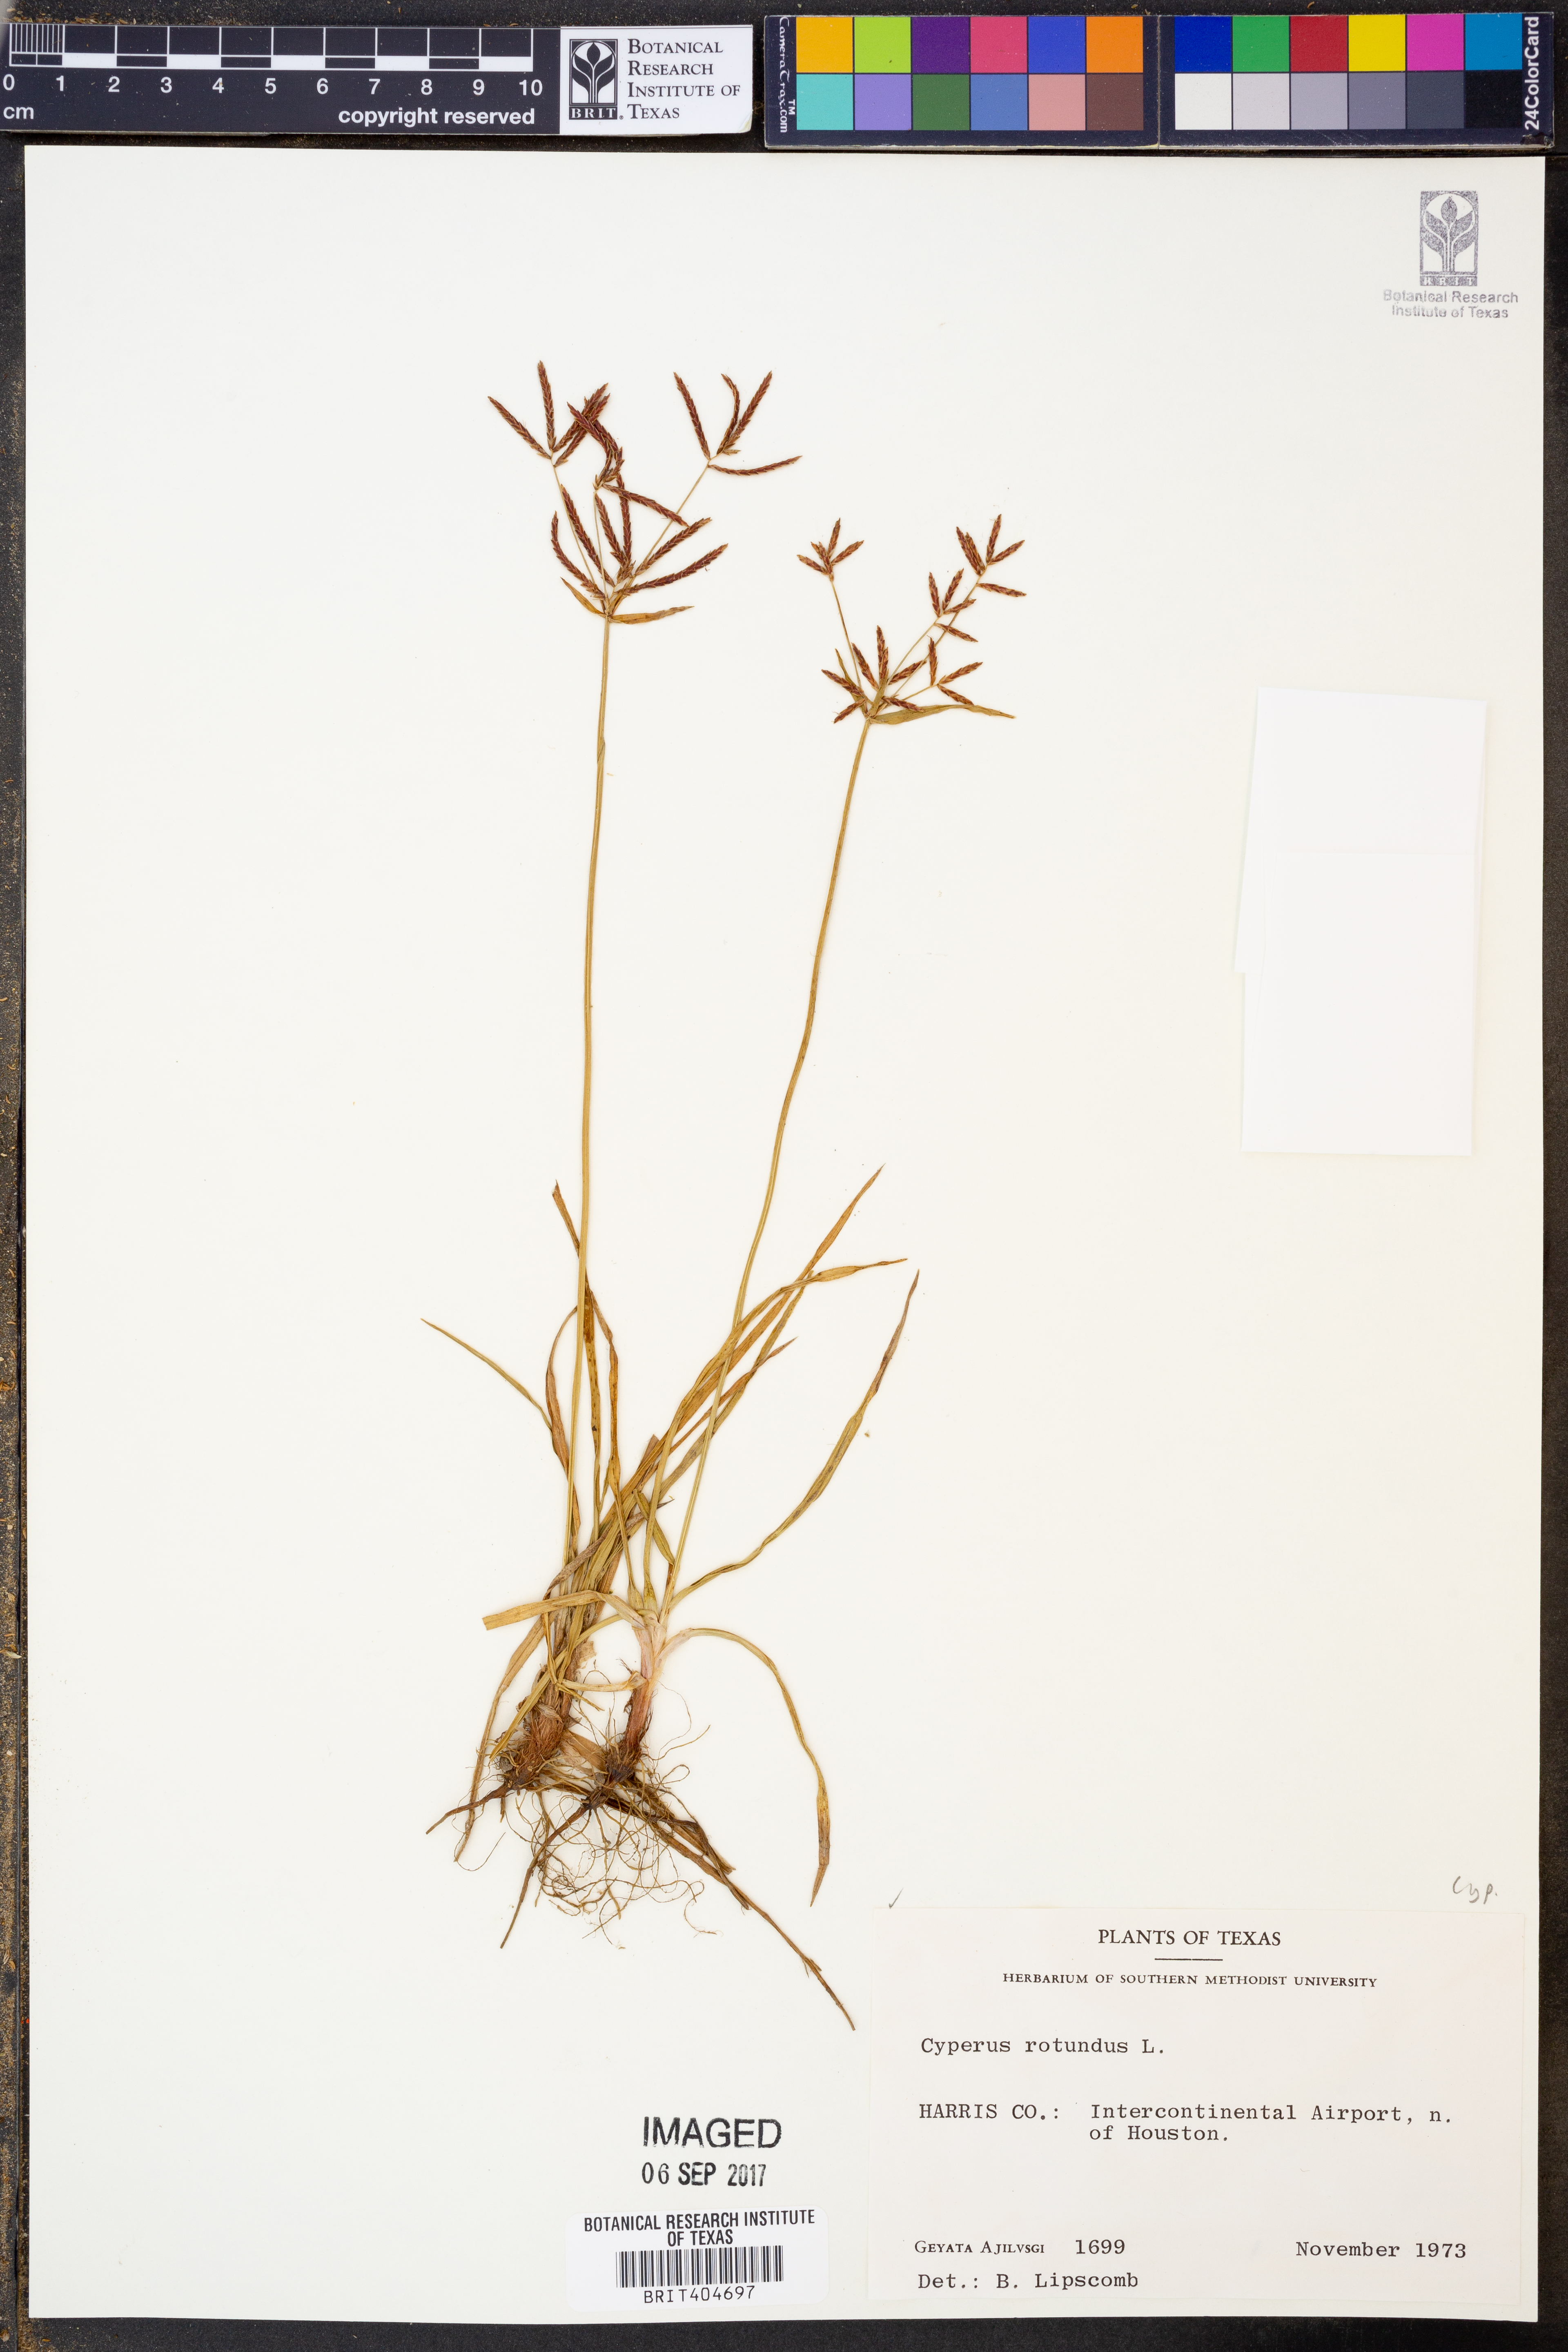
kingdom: Plantae
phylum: Tracheophyta
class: Liliopsida
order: Poales
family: Cyperaceae
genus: Cyperus
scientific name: Cyperus rotundus
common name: Nutgrass
